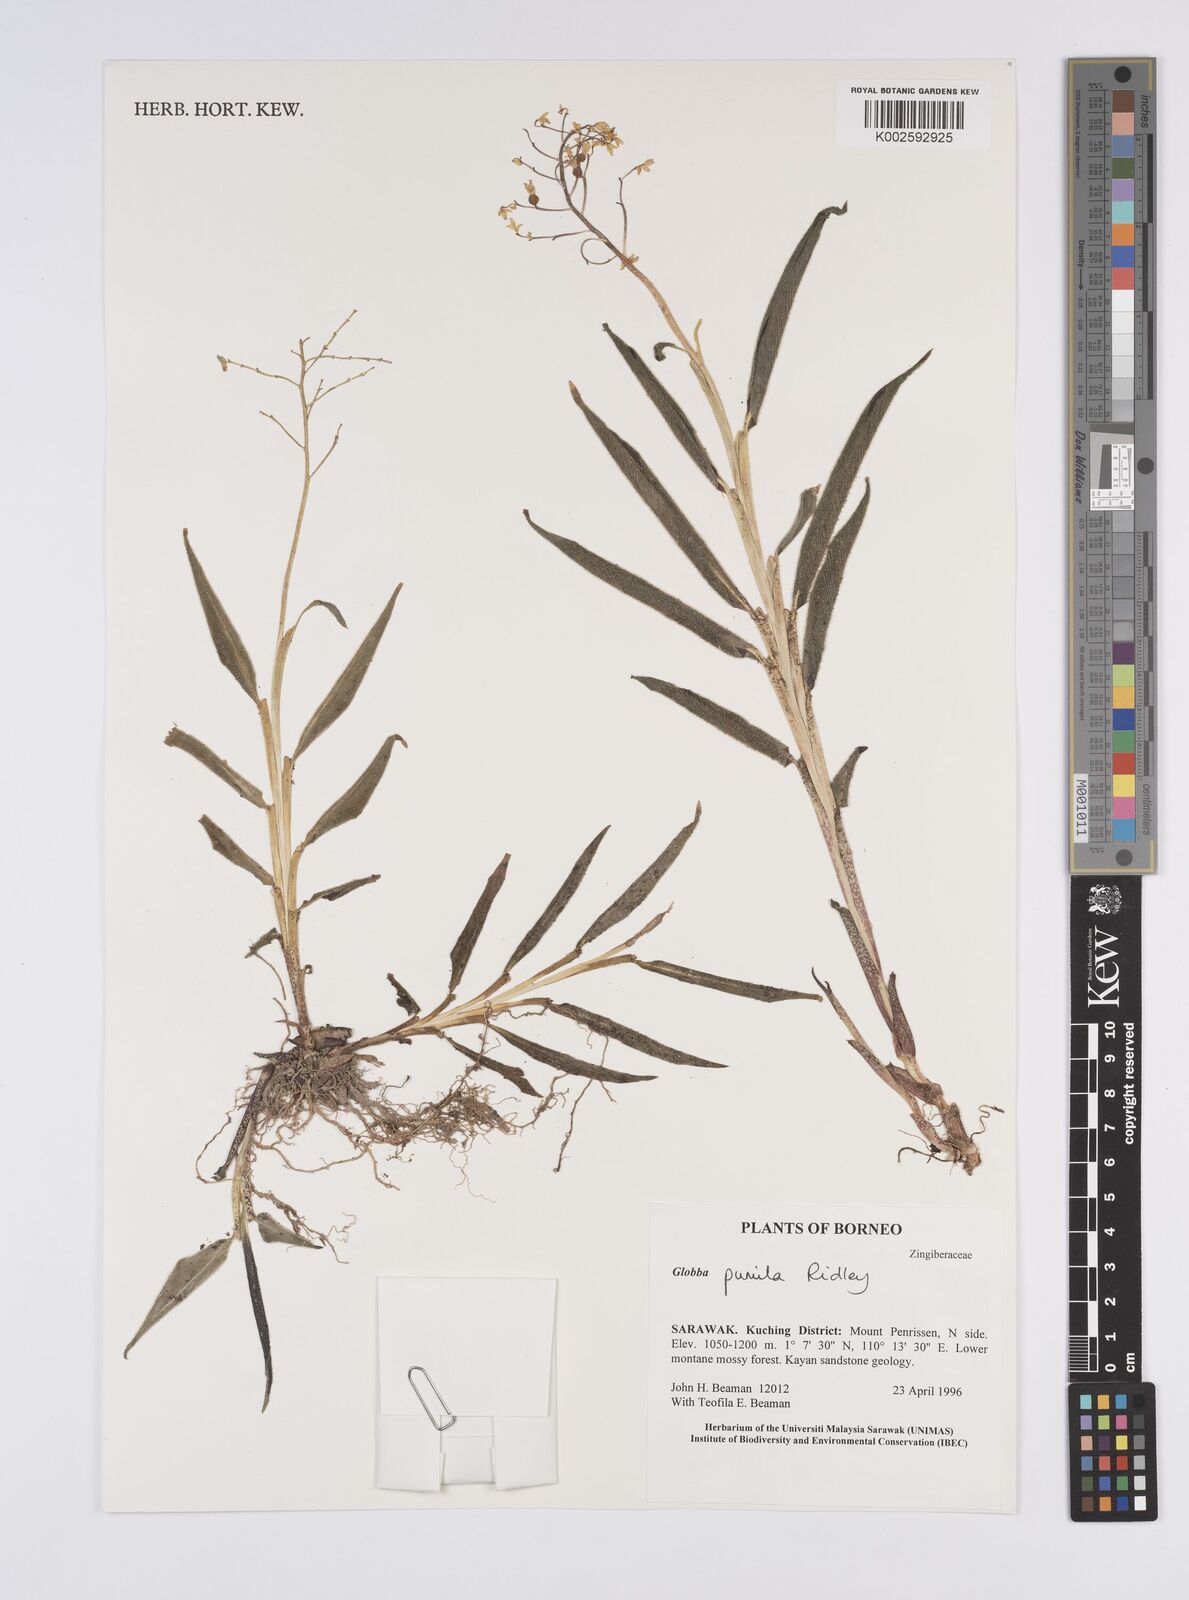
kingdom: Plantae
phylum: Tracheophyta
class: Liliopsida
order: Zingiberales
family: Zingiberaceae
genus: Globba
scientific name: Globba pumila
